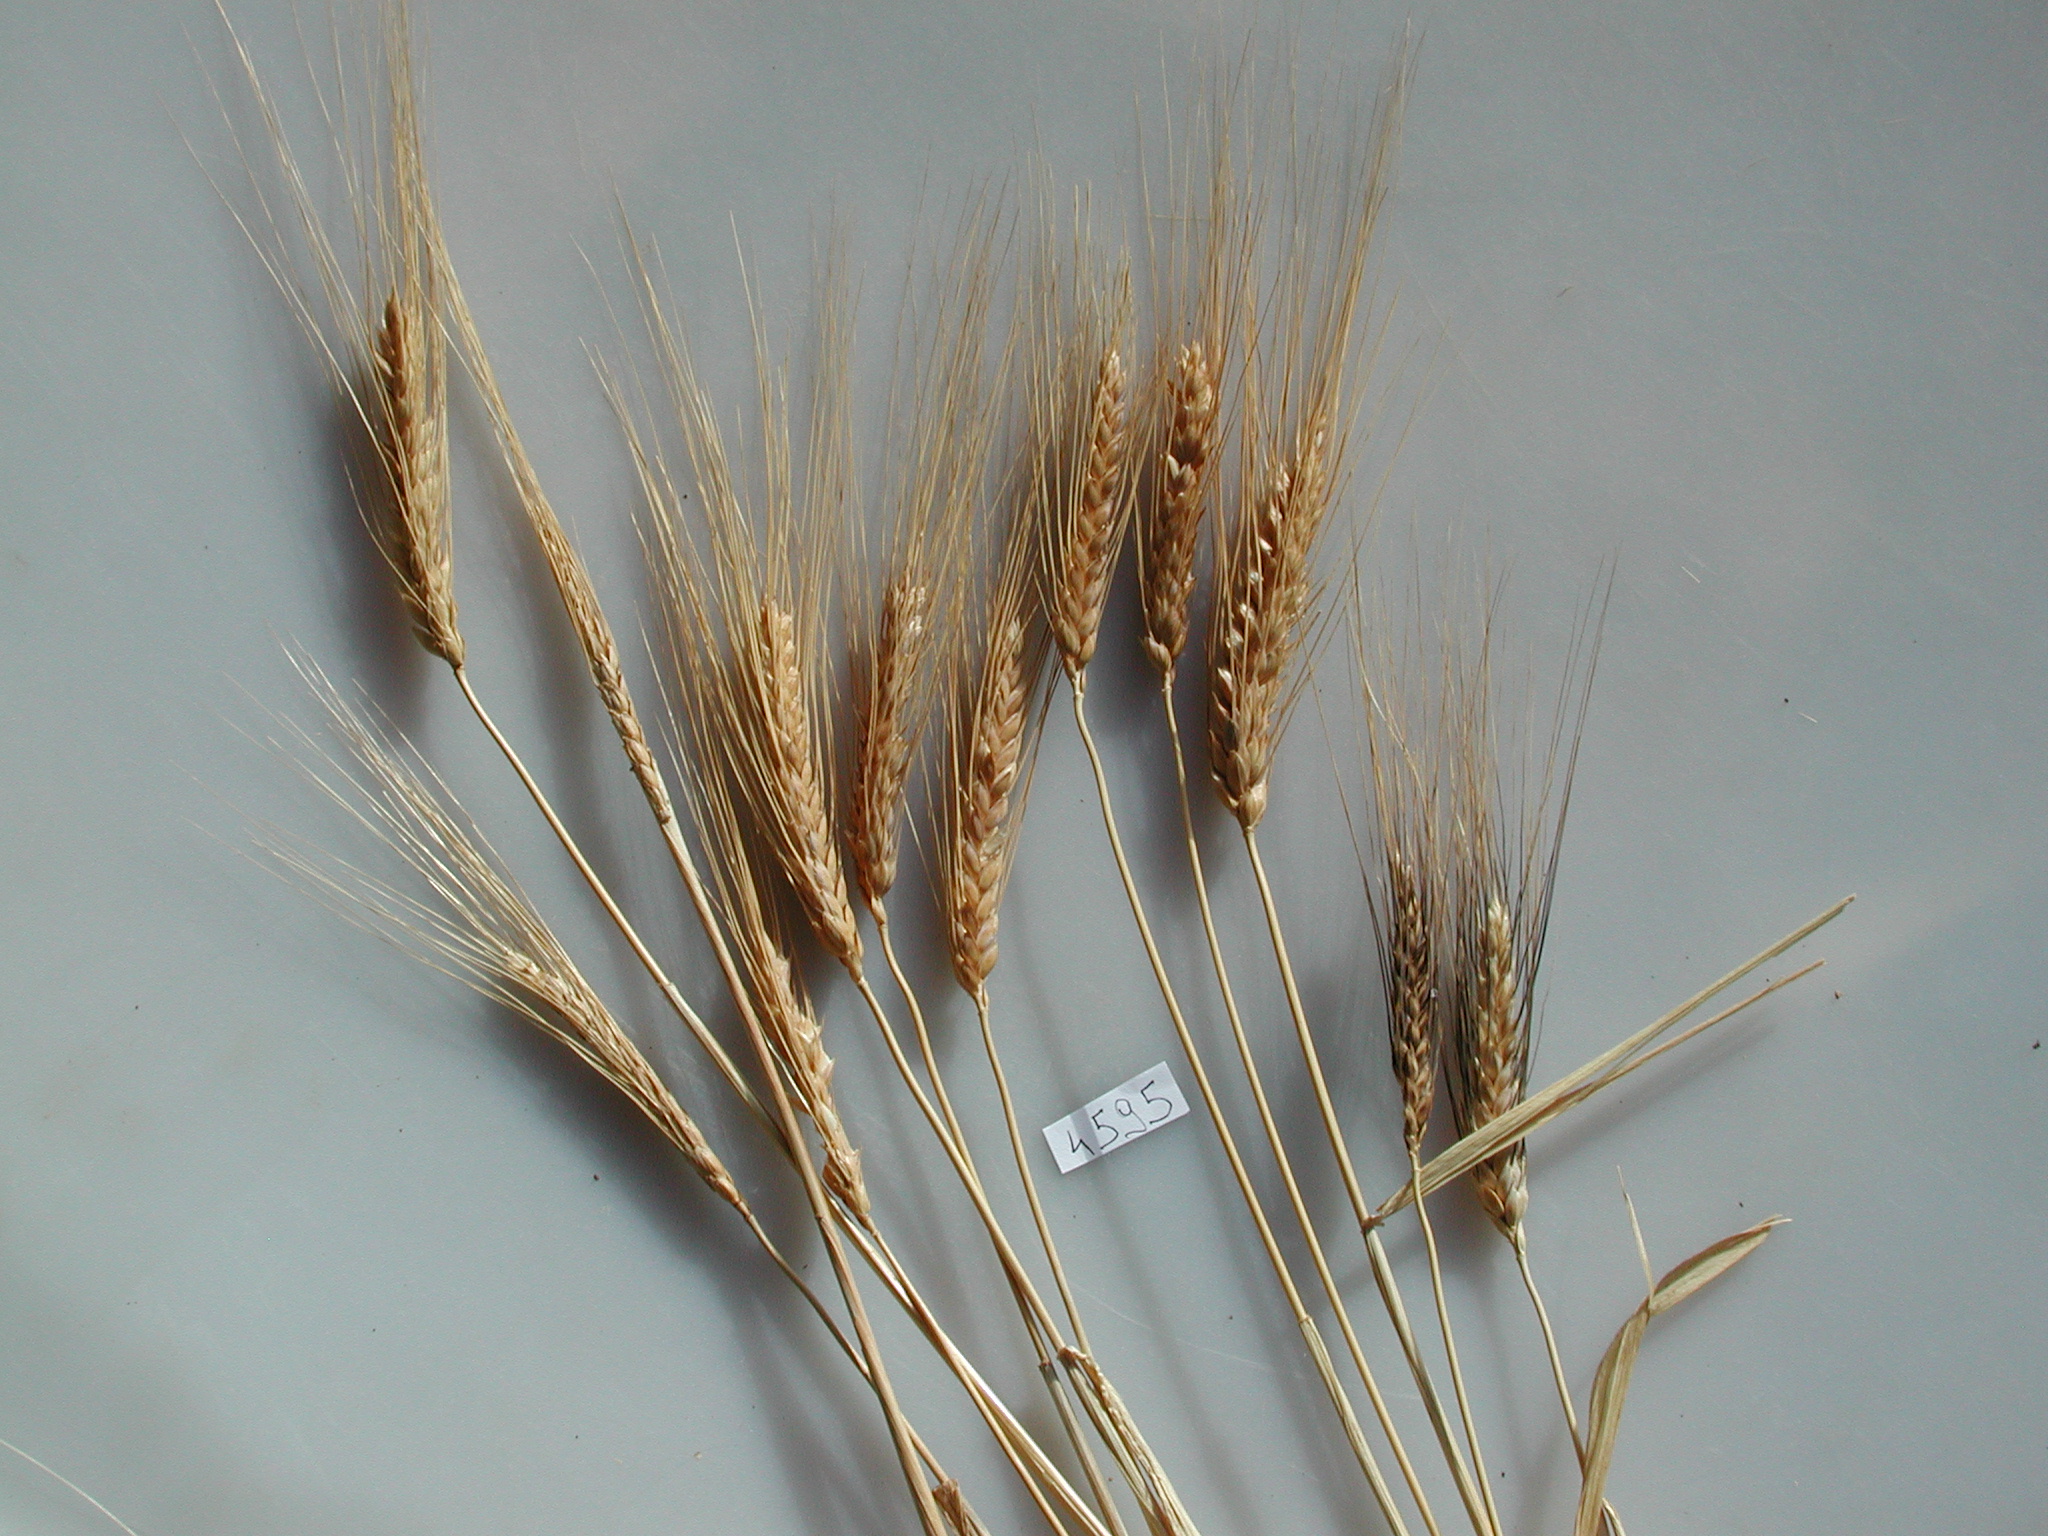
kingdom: Plantae
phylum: Tracheophyta
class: Liliopsida
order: Poales
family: Poaceae
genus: Triticum
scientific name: Triticum turgidum
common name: Wheat
